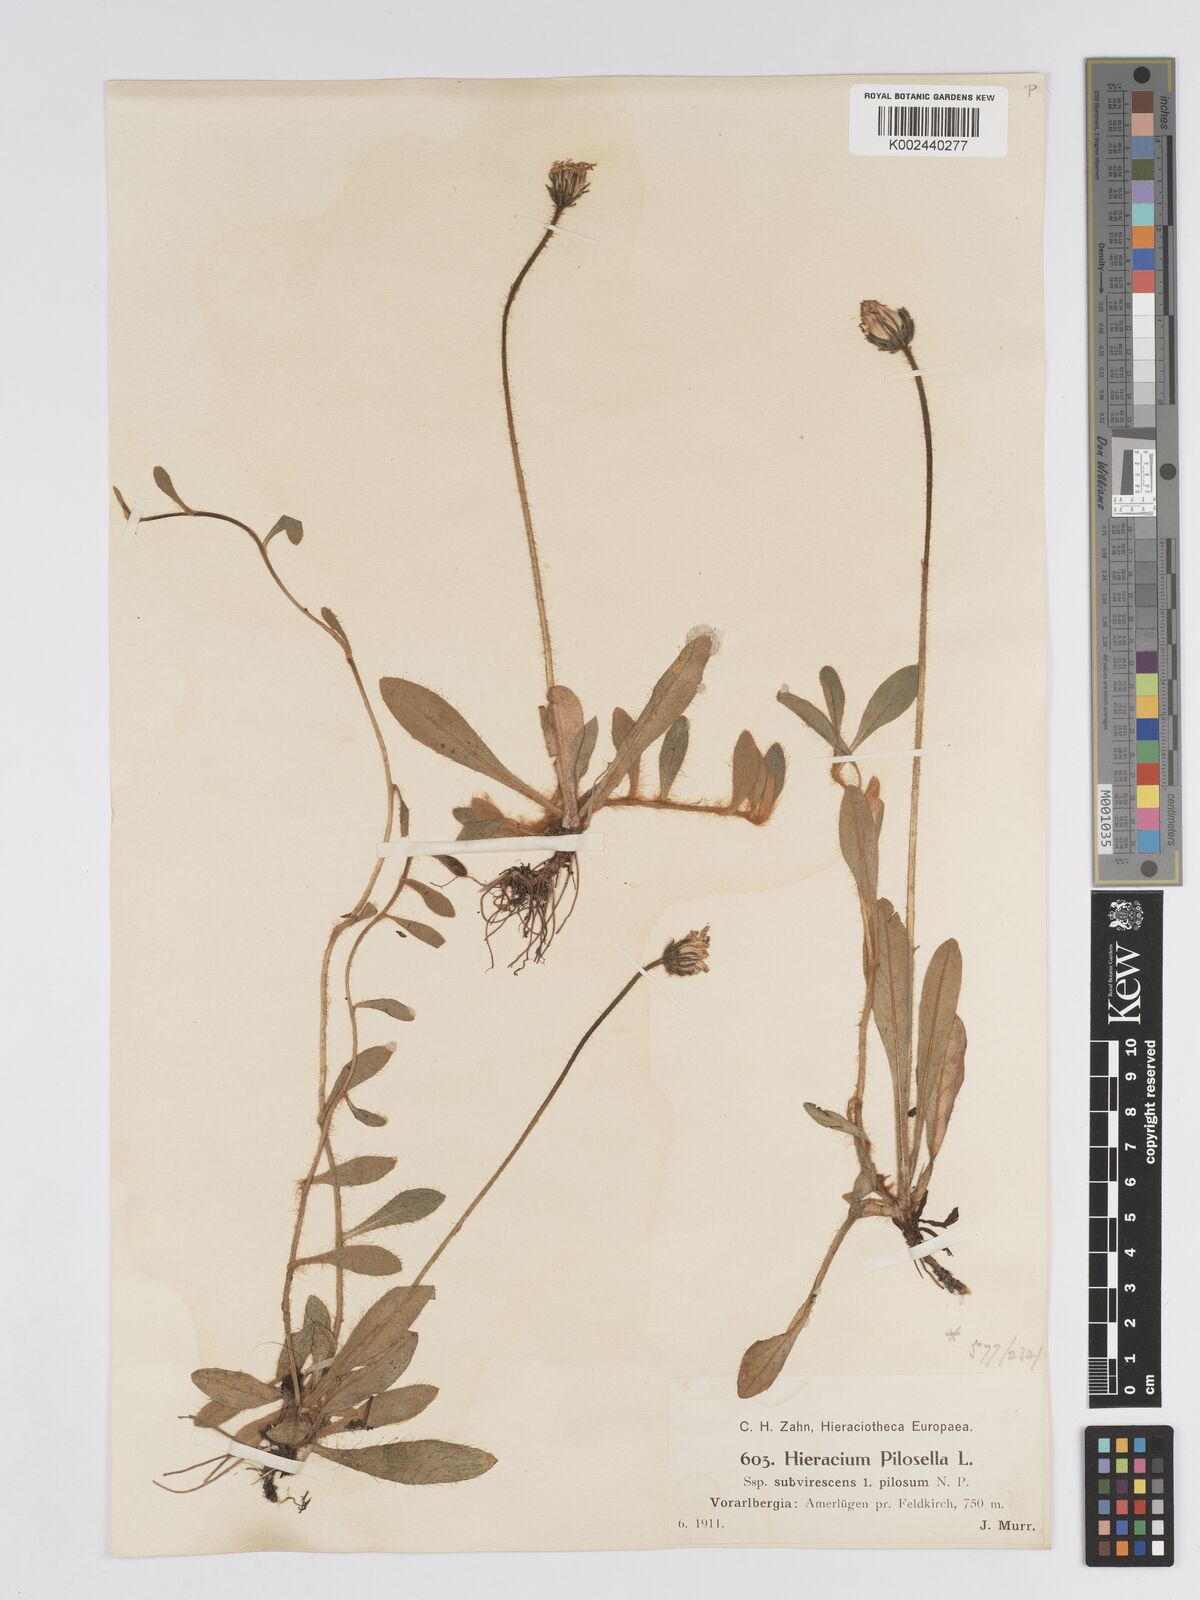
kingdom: Plantae
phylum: Tracheophyta
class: Magnoliopsida
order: Asterales
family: Asteraceae
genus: Pilosella
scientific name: Pilosella officinarum
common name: Mouse-ear hawkweed
